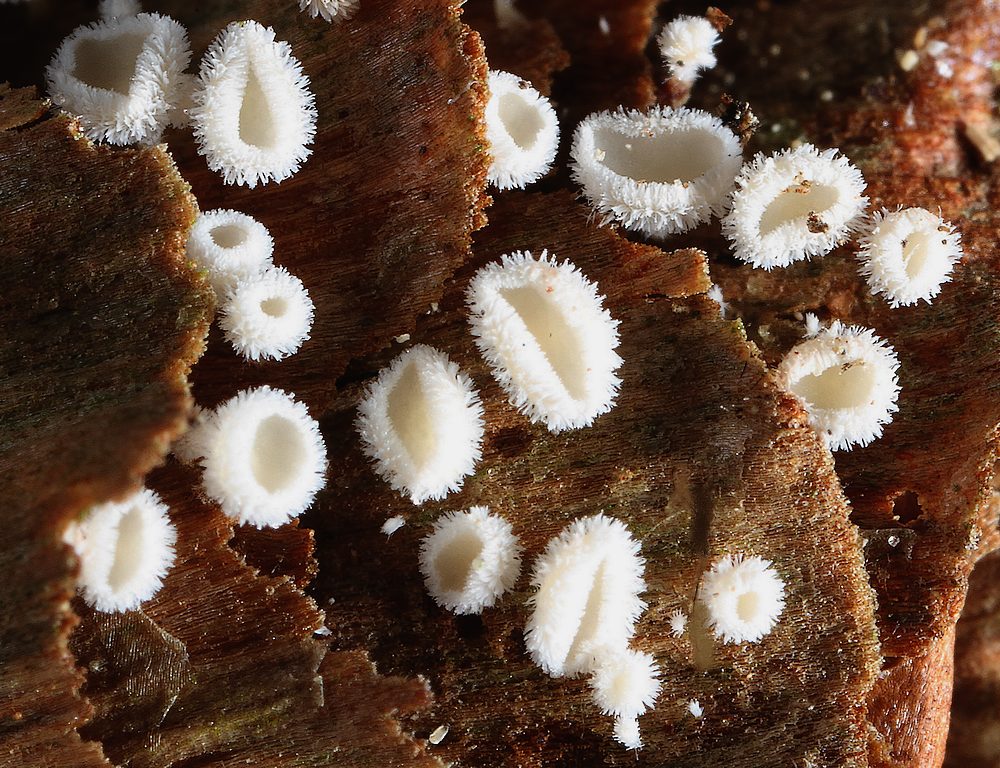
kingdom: Fungi
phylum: Ascomycota
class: Leotiomycetes
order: Helotiales
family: Lachnaceae
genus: Lachnum
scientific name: Lachnum virgineum
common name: jomfru-frynseskive
